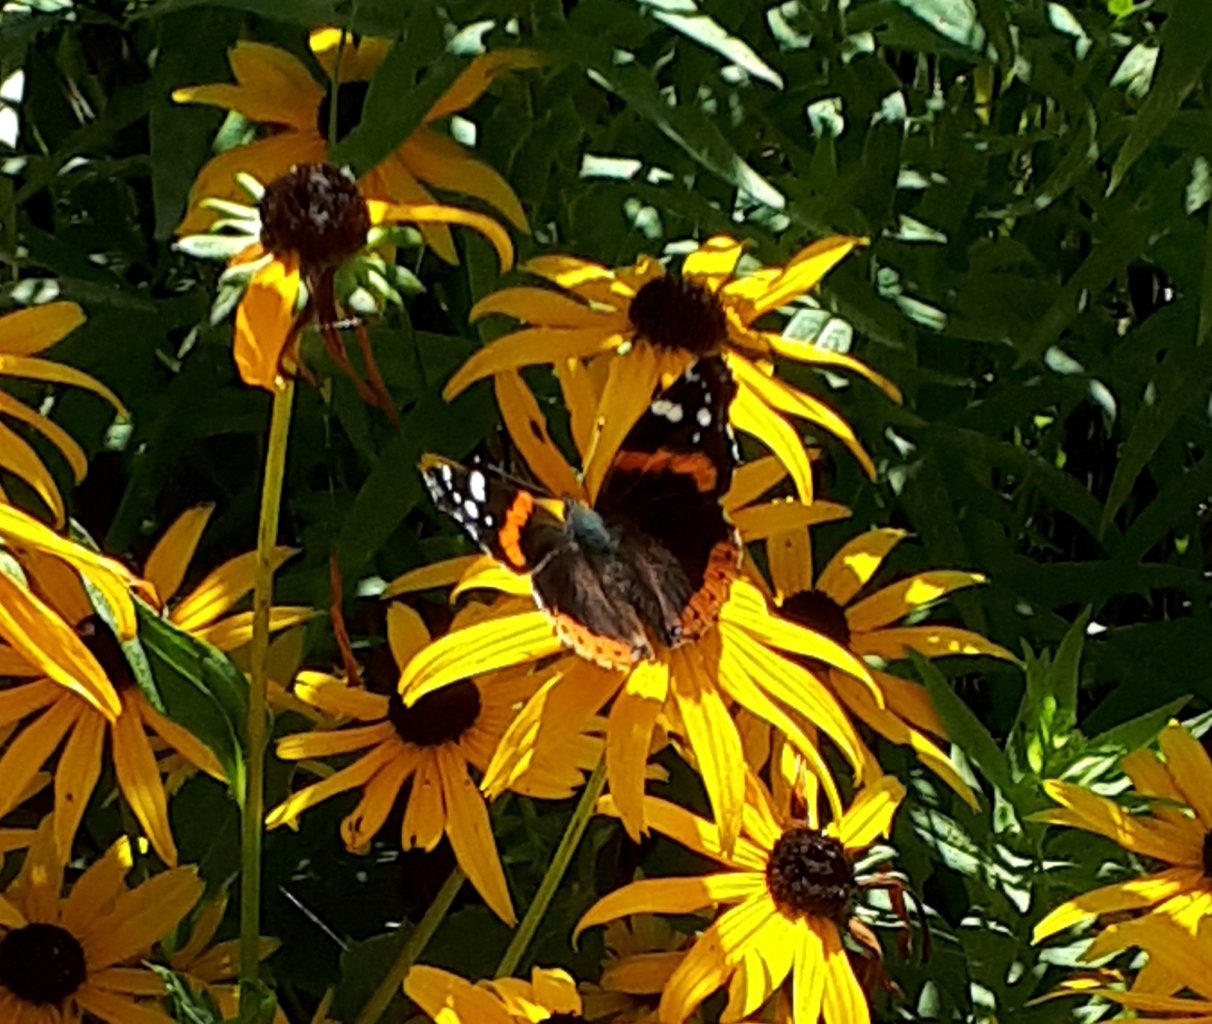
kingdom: Animalia
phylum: Arthropoda
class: Insecta
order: Lepidoptera
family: Nymphalidae
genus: Vanessa
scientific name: Vanessa atalanta
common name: Red Admiral
